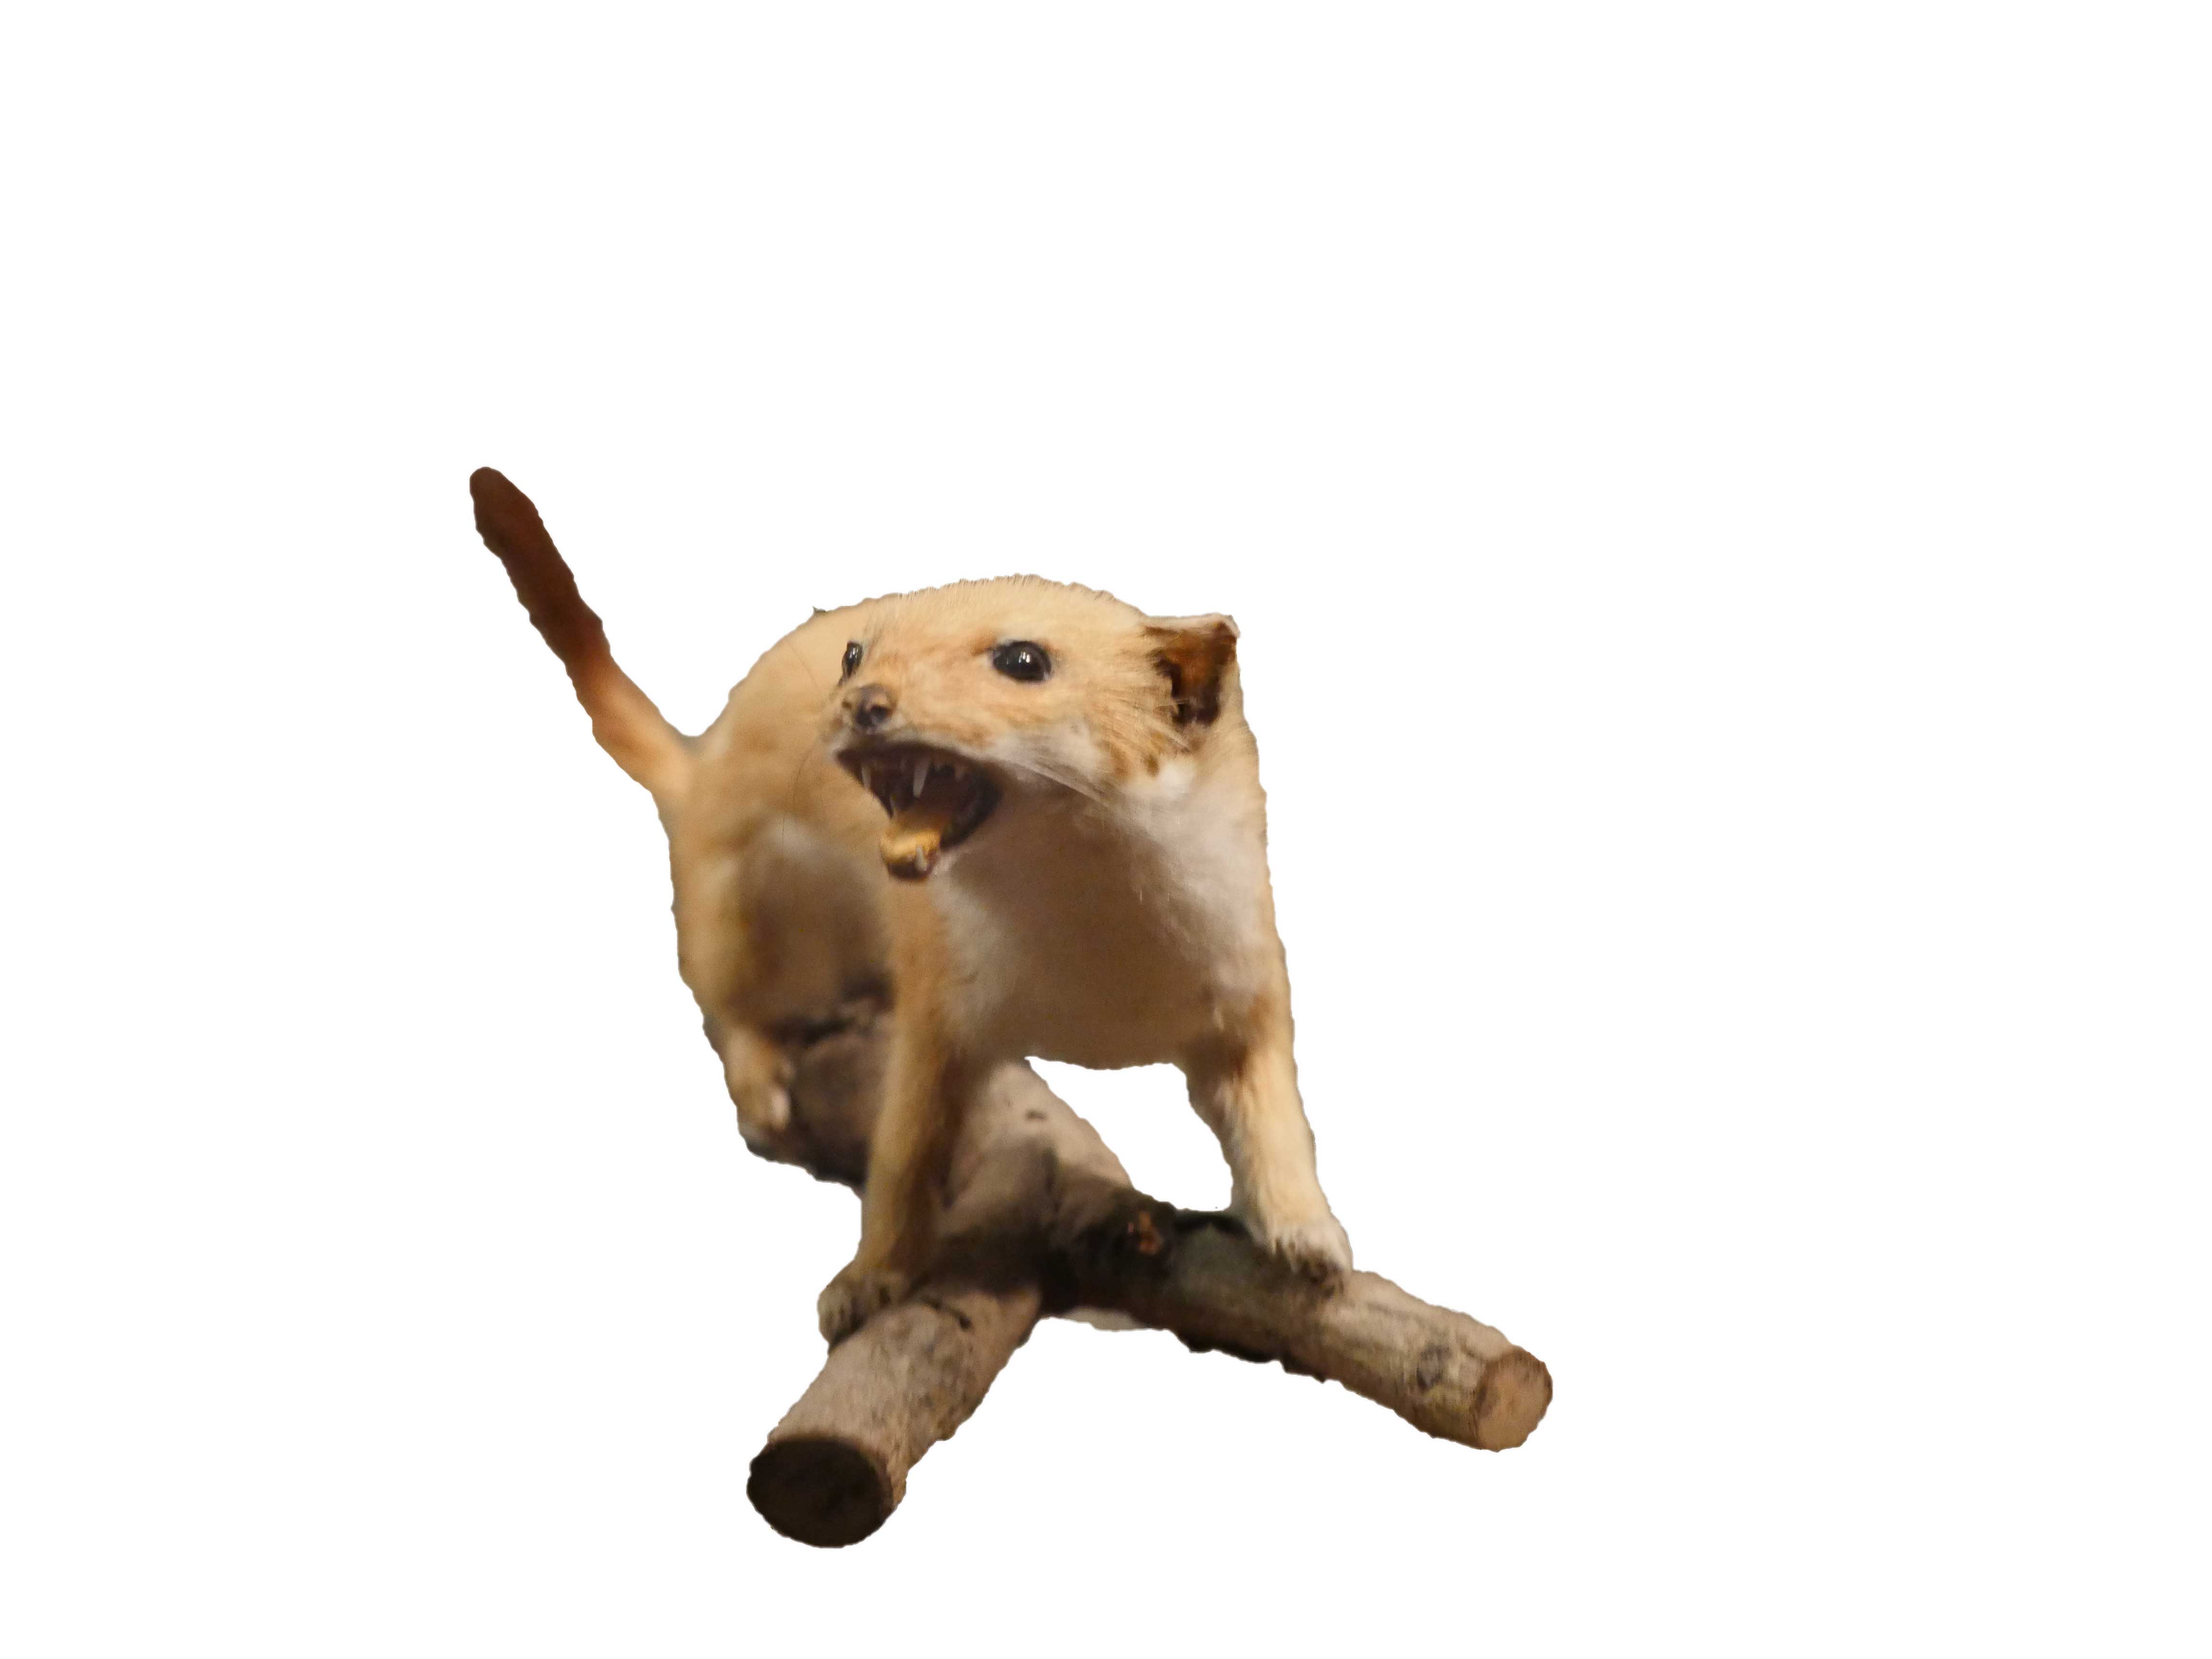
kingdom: Animalia
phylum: Chordata
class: Mammalia
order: Carnivora
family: Mustelidae
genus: Mustela
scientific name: Mustela erminea
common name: Stoat
